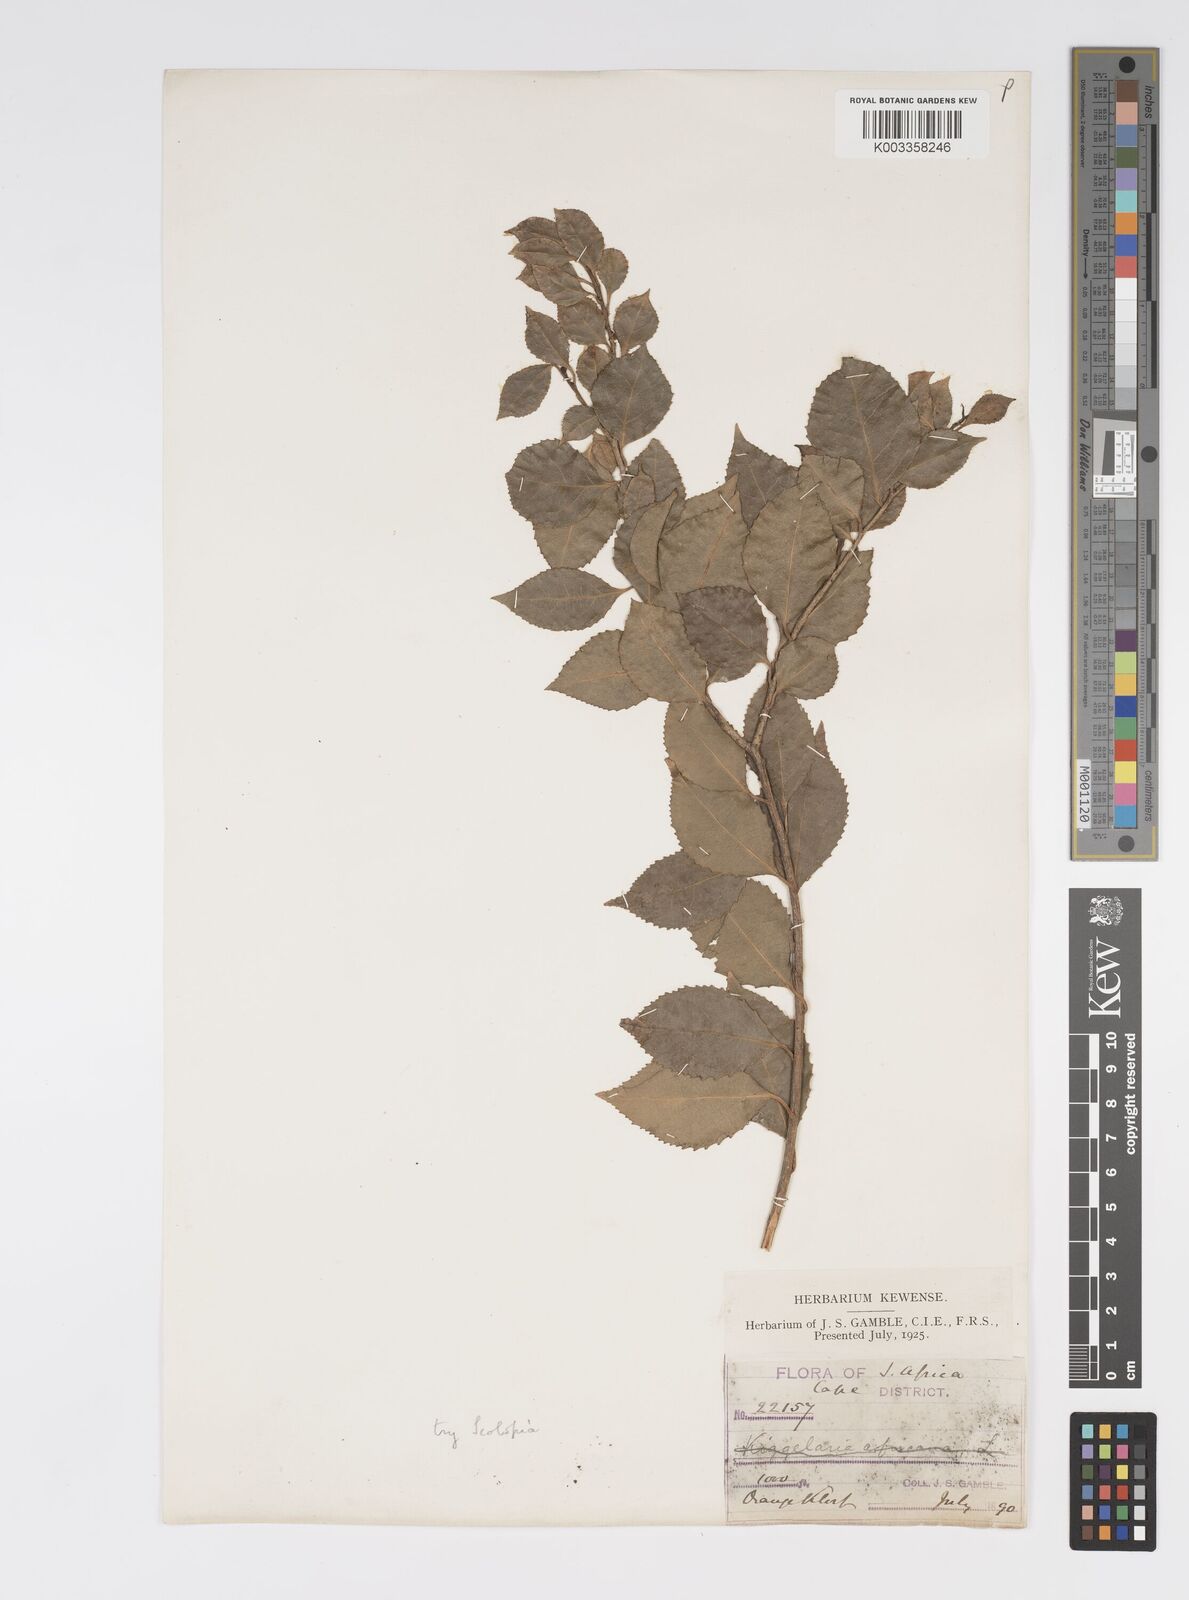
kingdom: Plantae
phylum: Tracheophyta
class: Magnoliopsida
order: Malpighiales
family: Salicaceae
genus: Scolopia
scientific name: Scolopia mundii
